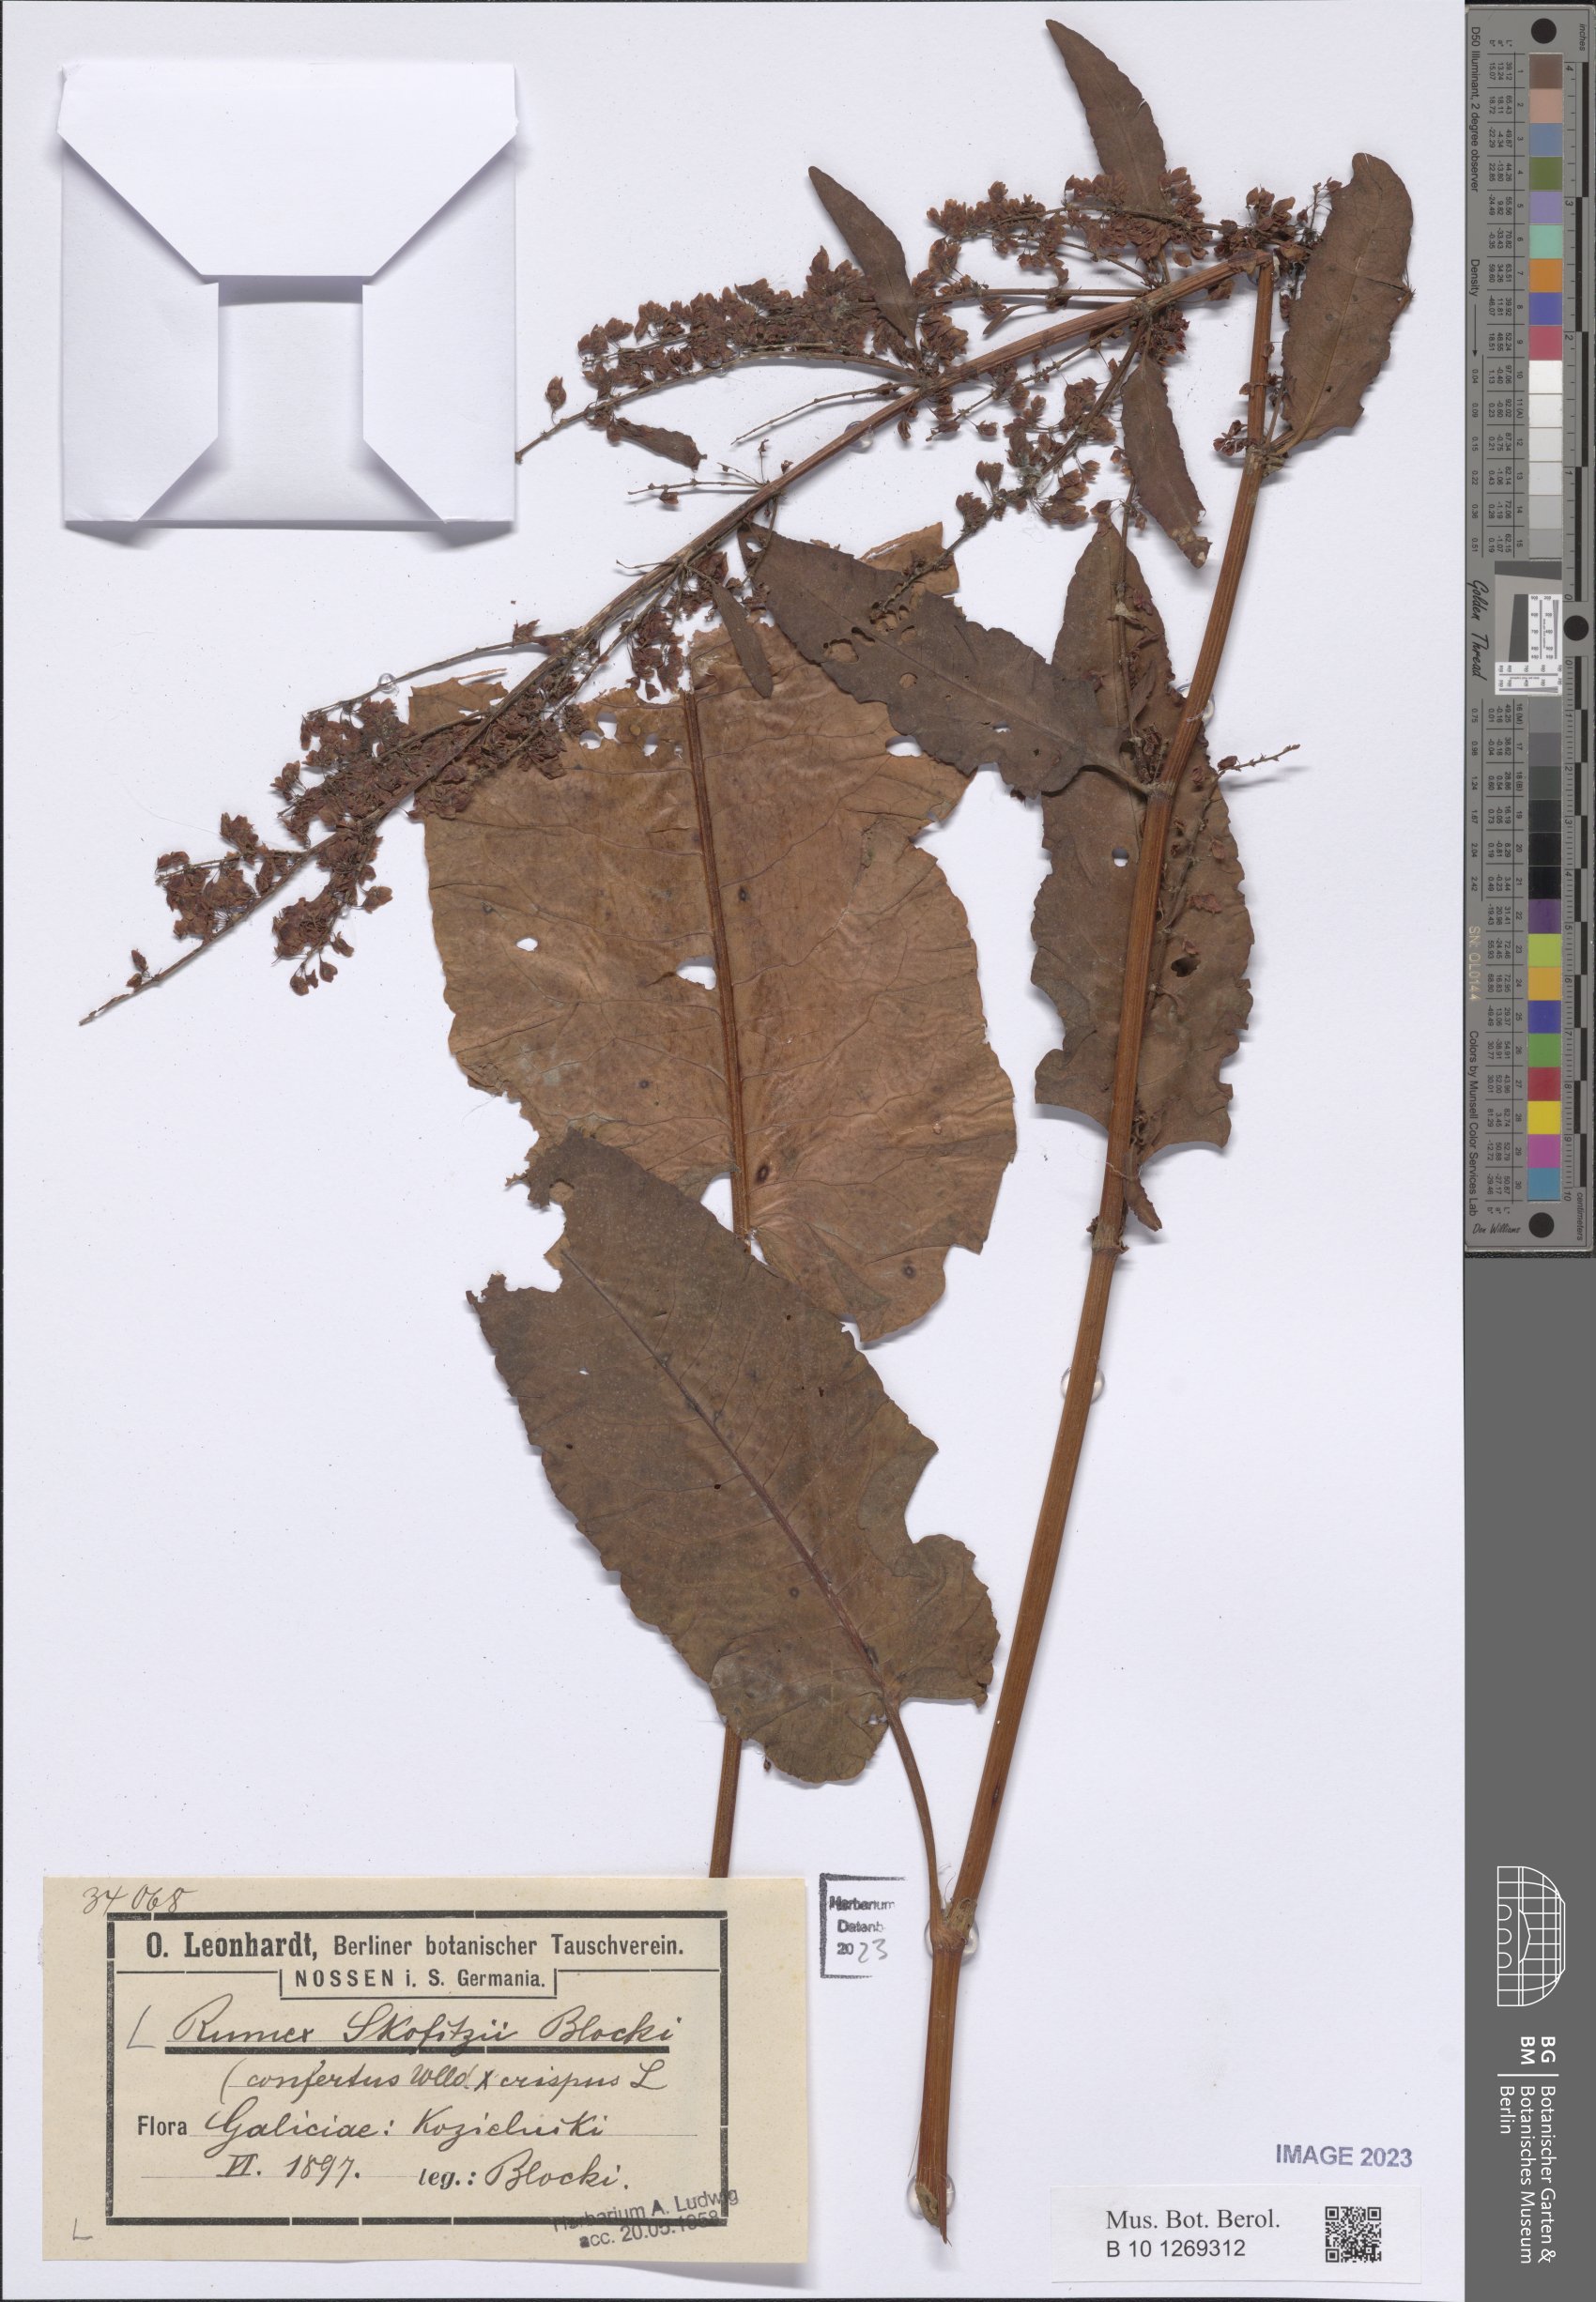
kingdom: Plantae
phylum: Tracheophyta
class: Magnoliopsida
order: Caryophyllales
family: Polygonaceae
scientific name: Polygonaceae
